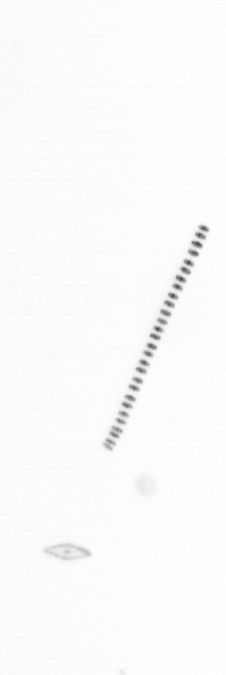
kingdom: Chromista
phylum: Ochrophyta
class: Bacillariophyceae
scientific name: Bacillariophyceae
